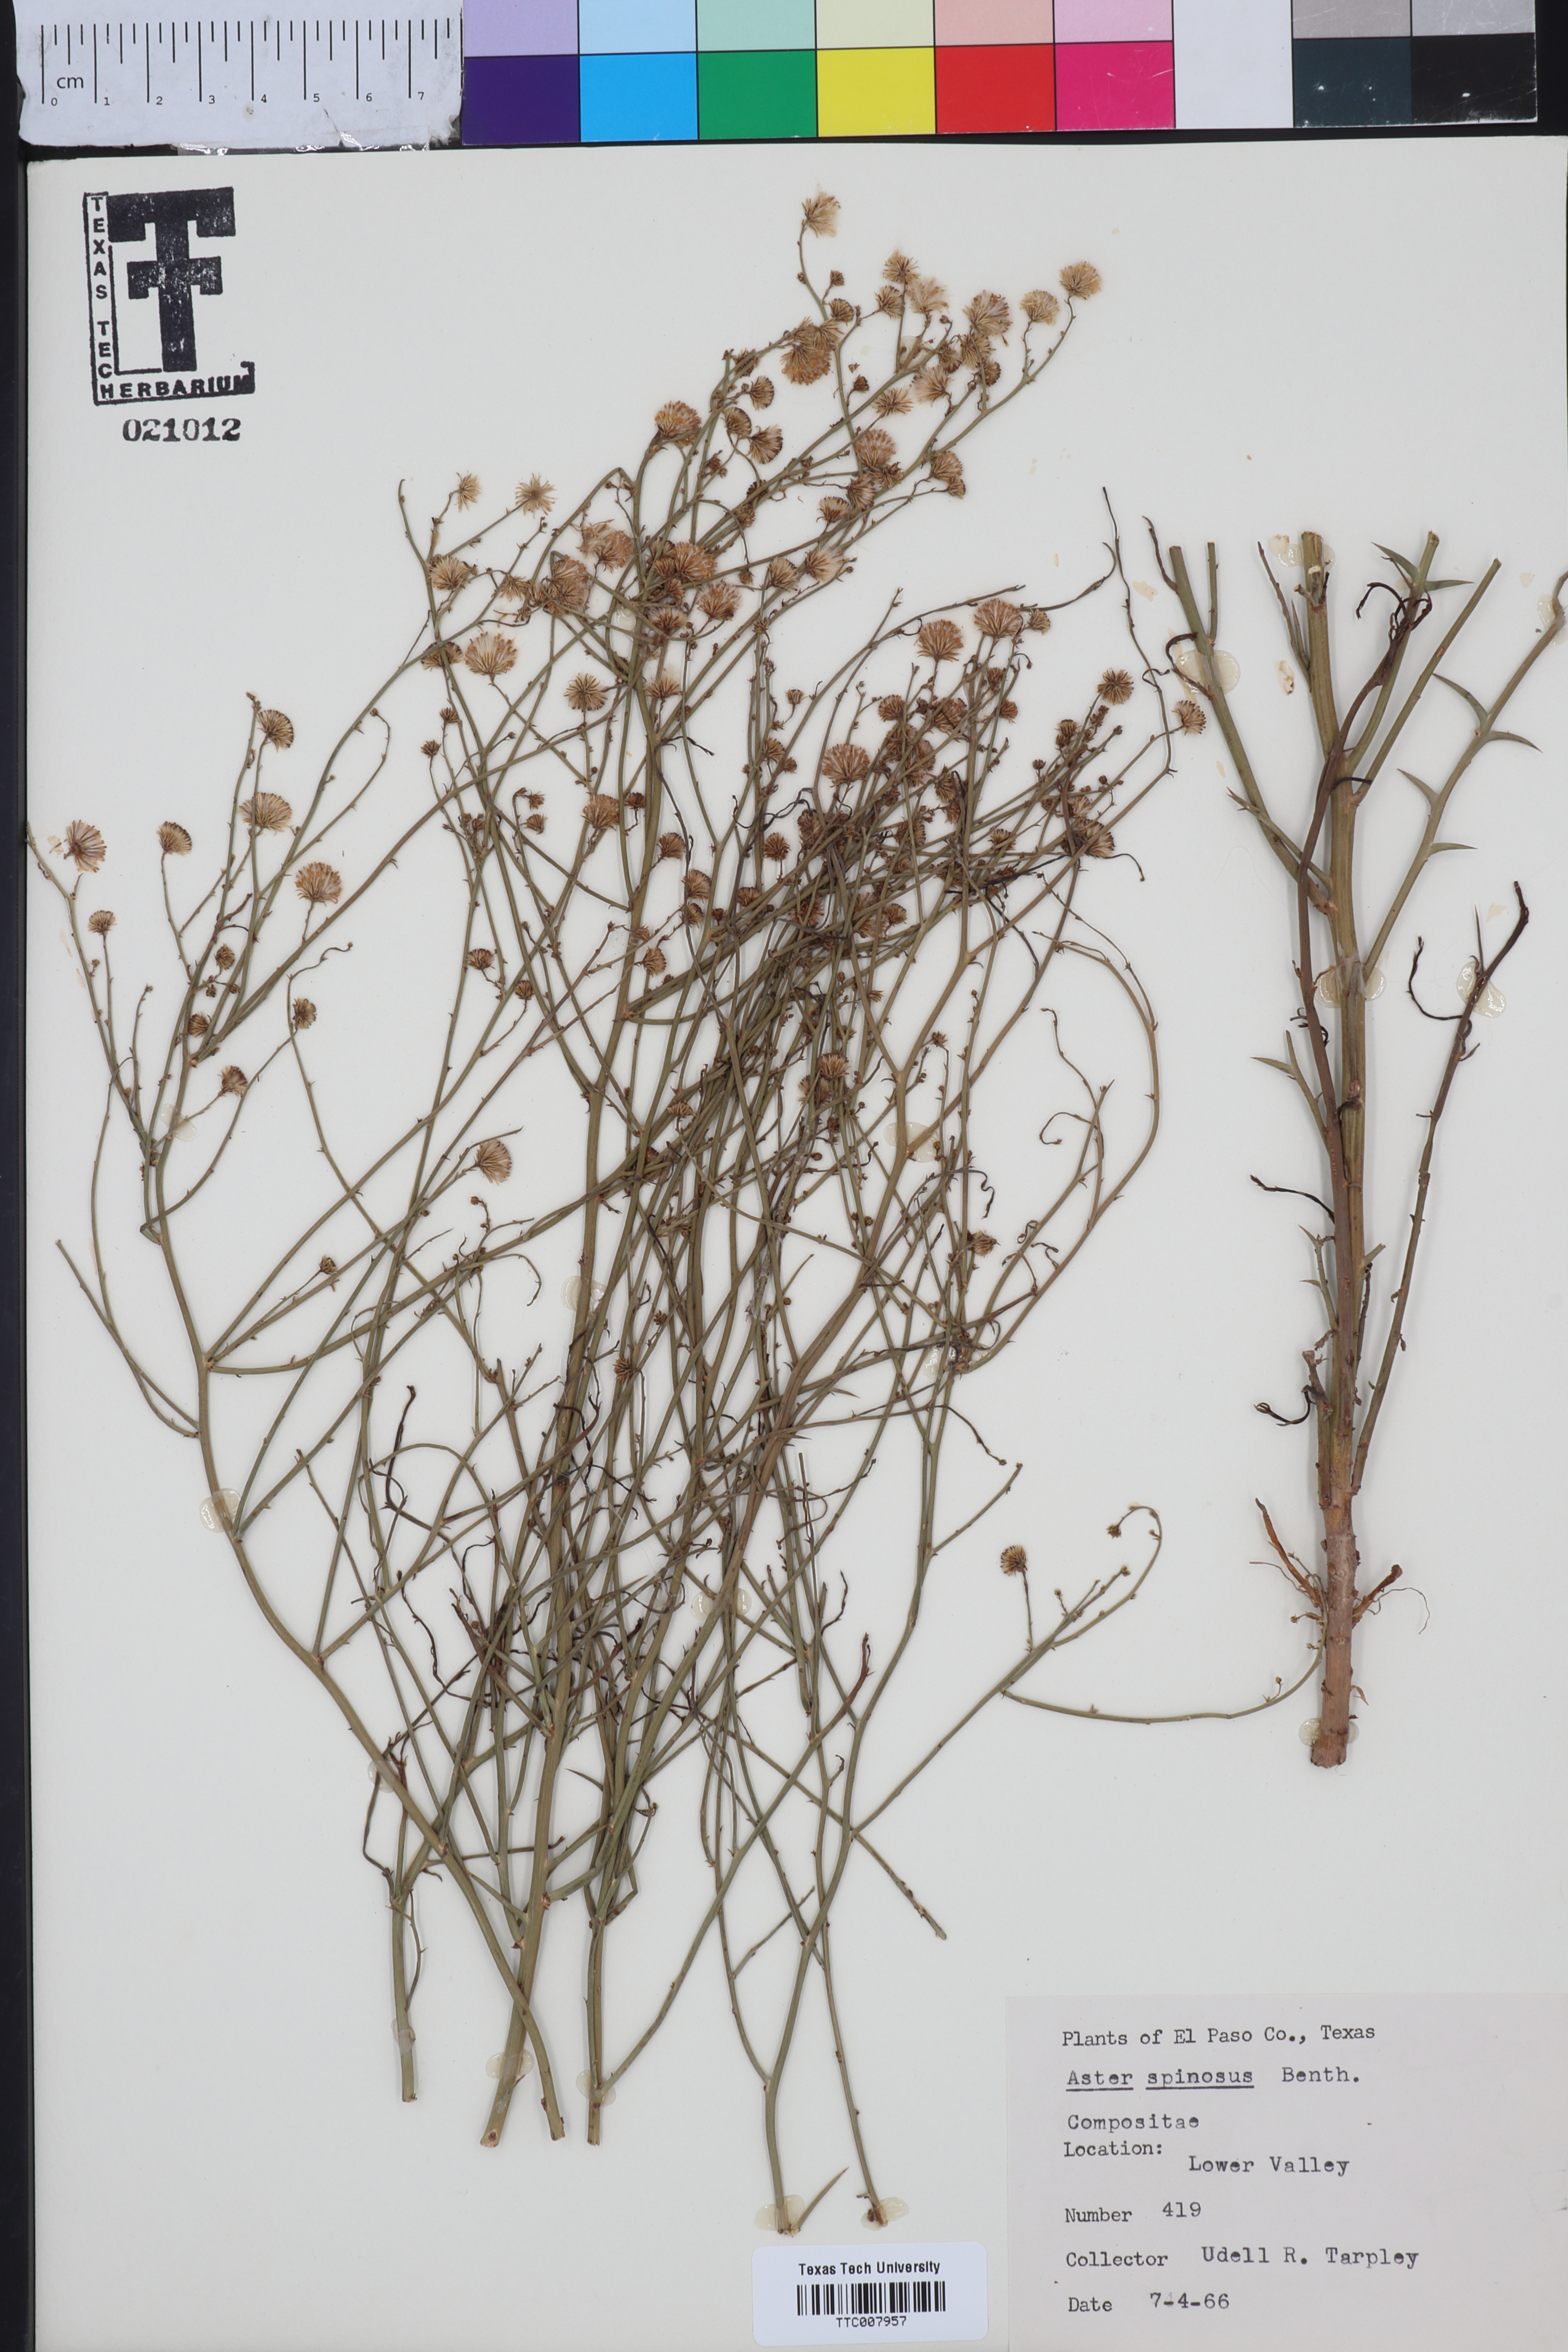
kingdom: Plantae
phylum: Tracheophyta
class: Magnoliopsida
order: Asterales
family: Asteraceae
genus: Chloracantha
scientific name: Chloracantha spinosa
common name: Mexican devilweed
